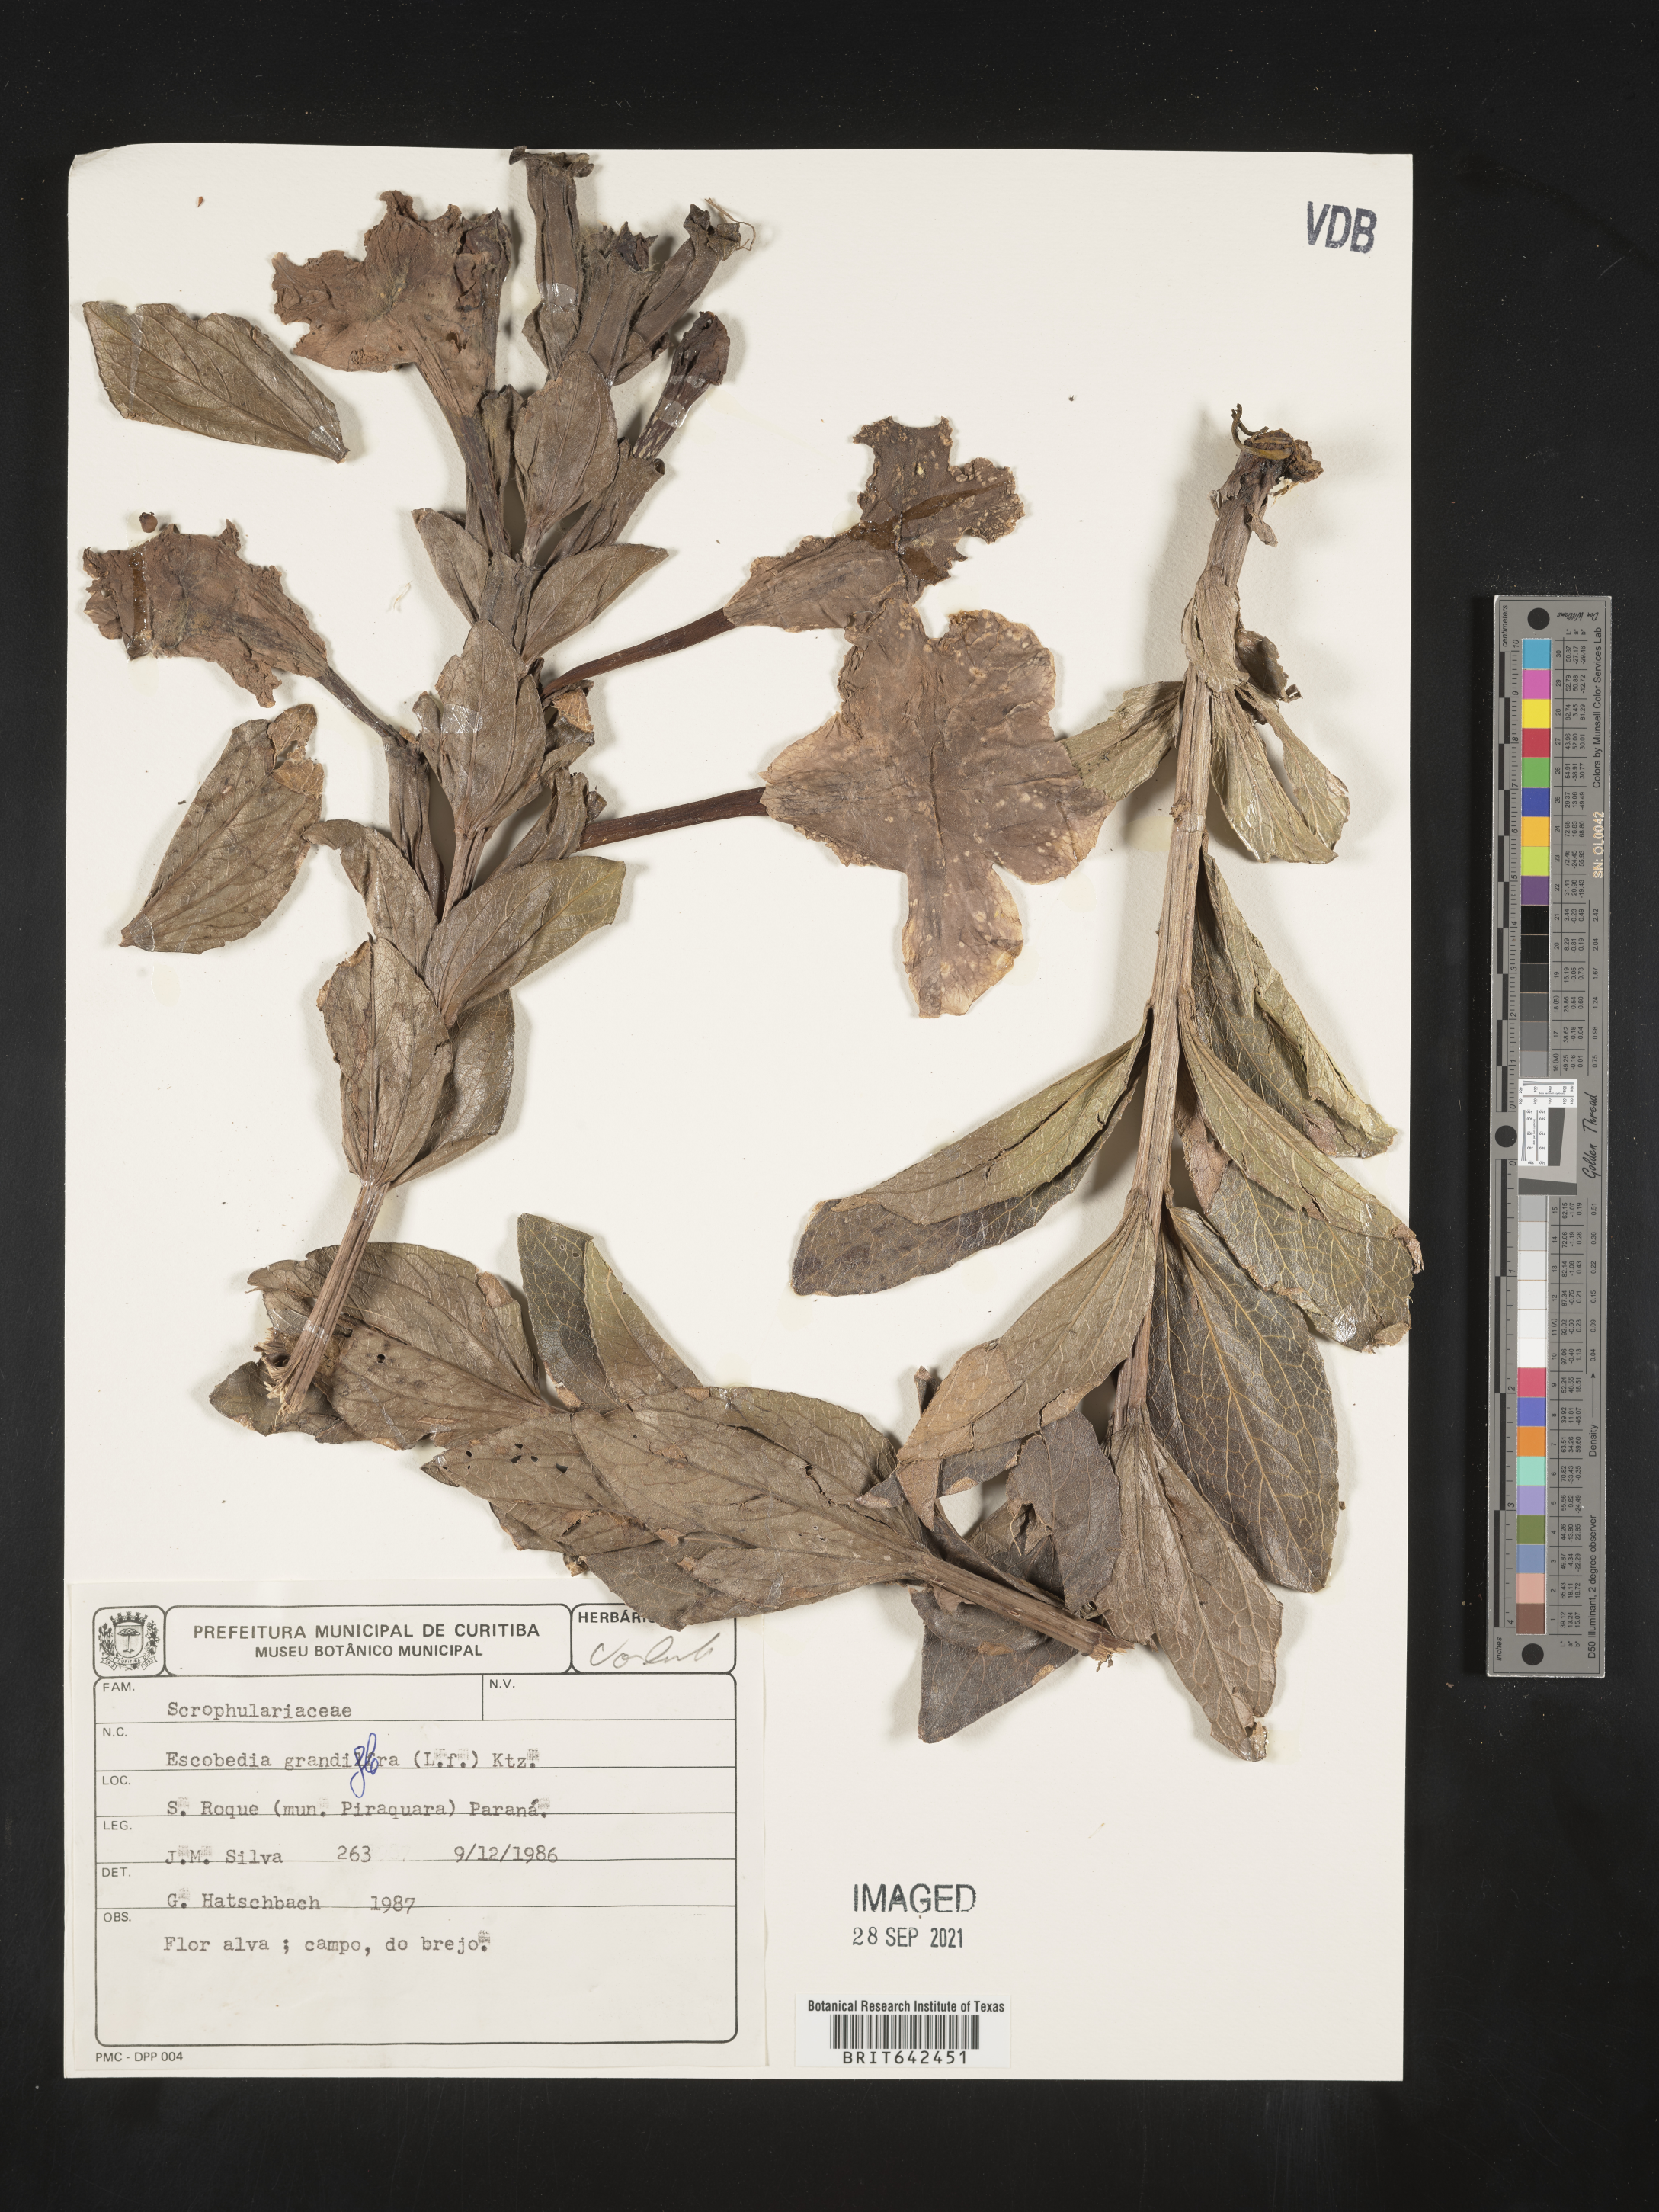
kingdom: Plantae
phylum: Tracheophyta
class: Magnoliopsida
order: Lamiales
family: Orobanchaceae
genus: Escobedia
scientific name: Escobedia
